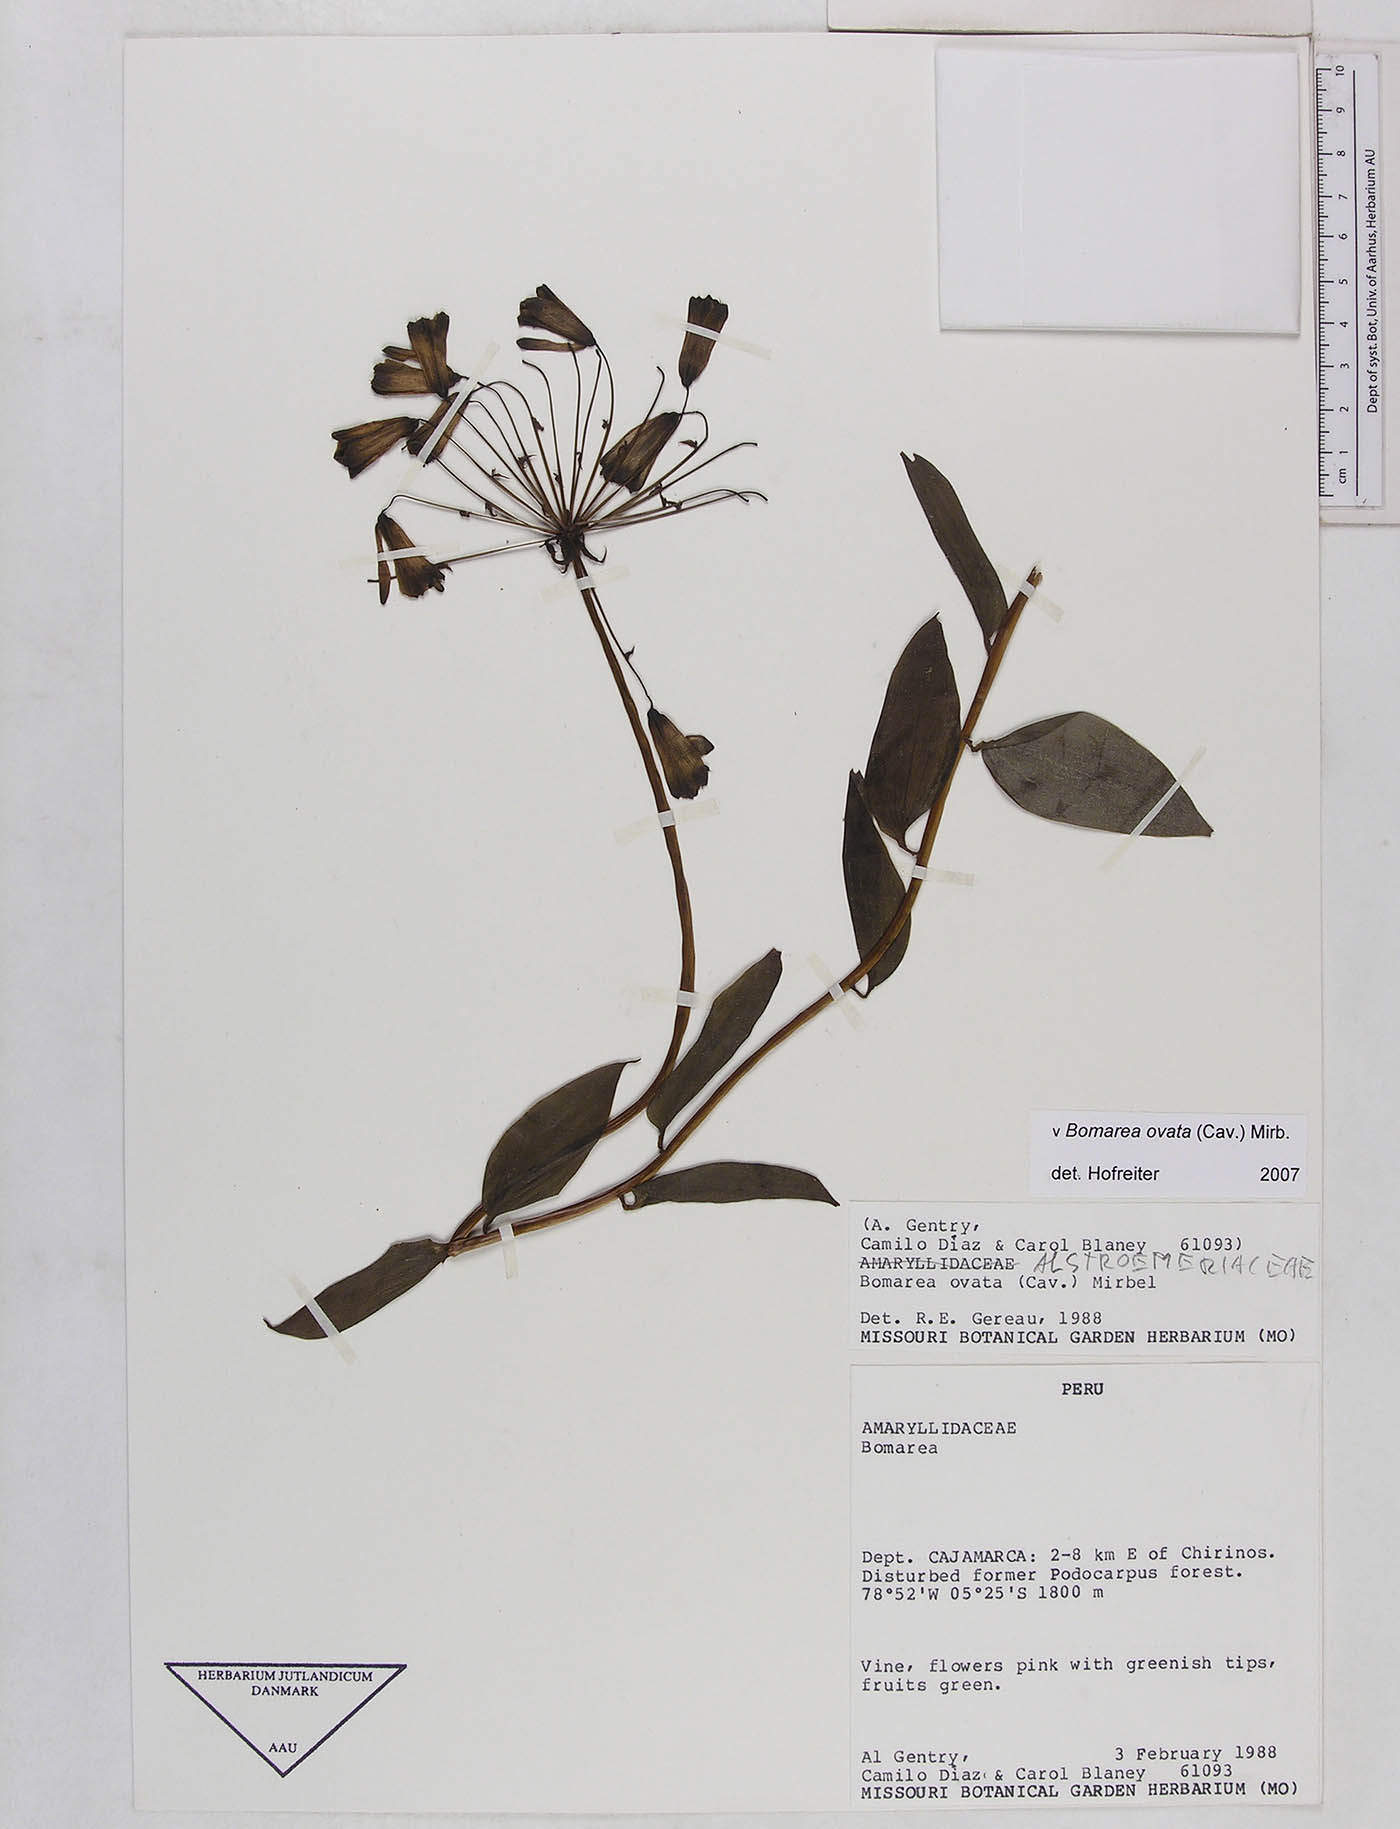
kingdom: Plantae
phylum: Tracheophyta
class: Liliopsida
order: Liliales
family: Alstroemeriaceae
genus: Bomarea
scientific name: Bomarea ovata
